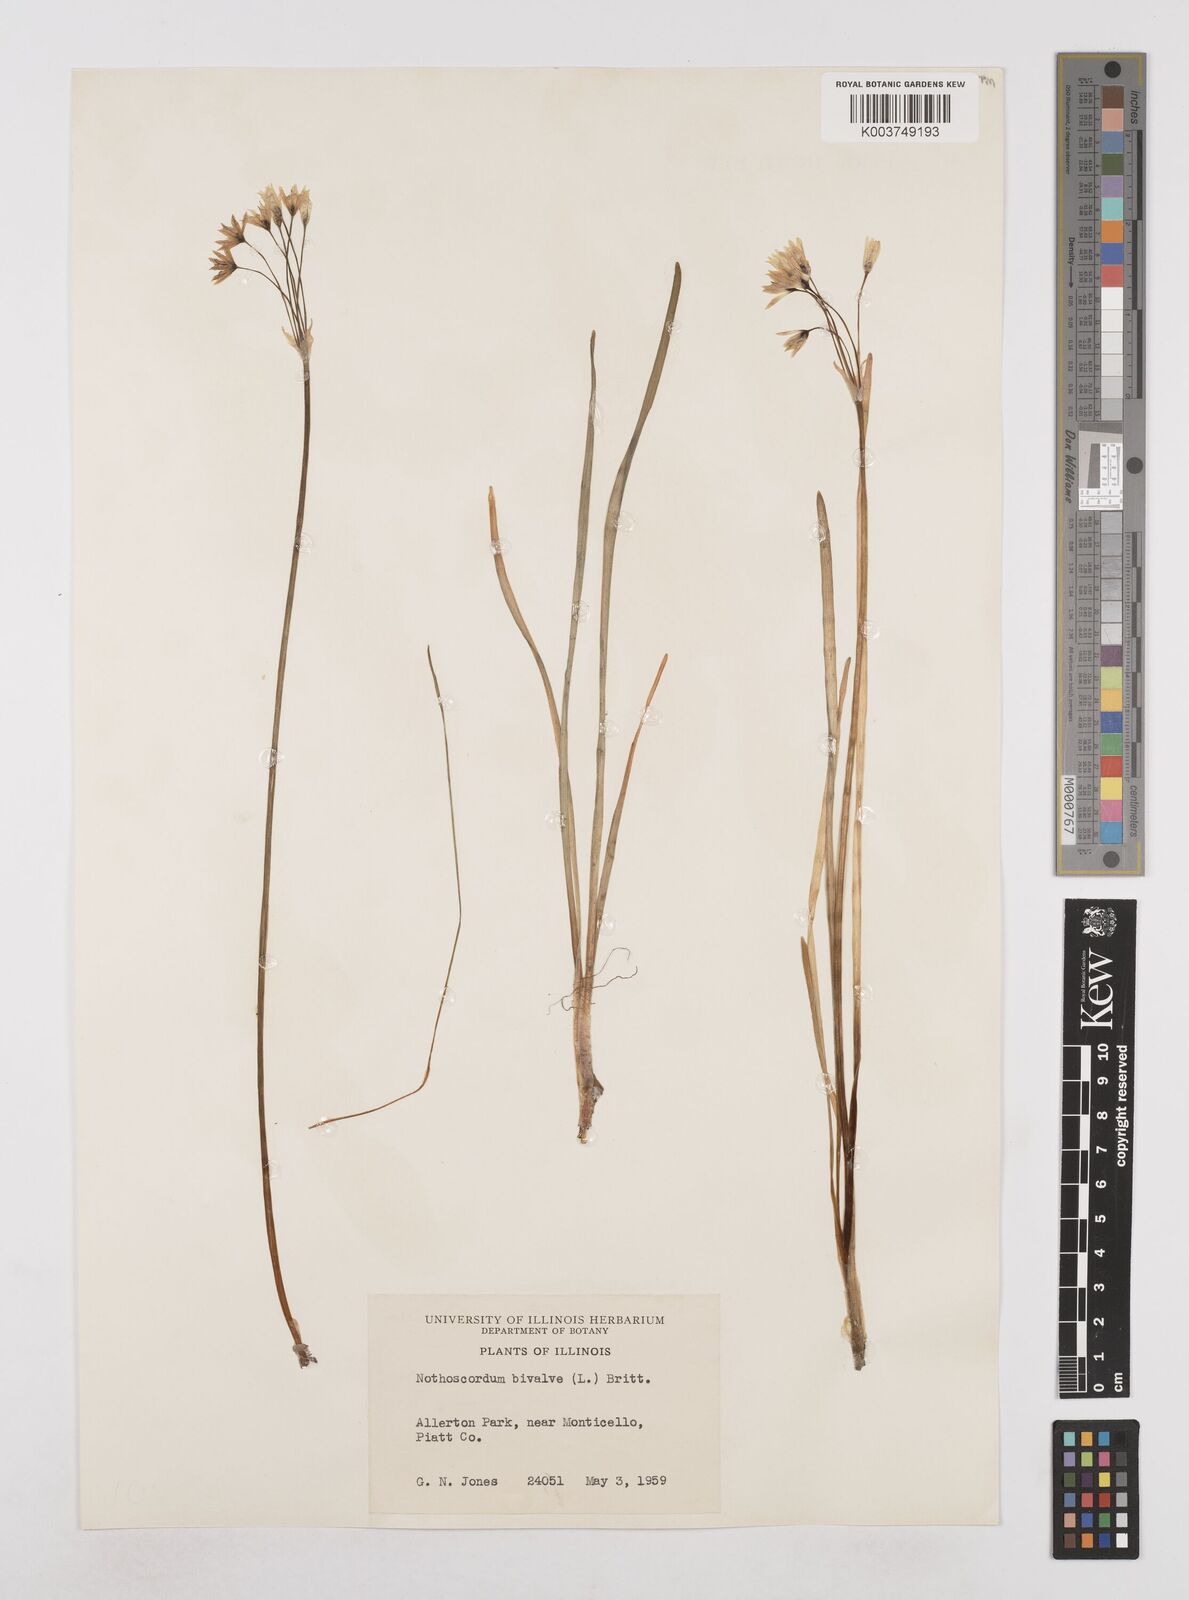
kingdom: Plantae
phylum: Tracheophyta
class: Liliopsida
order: Asparagales
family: Amaryllidaceae
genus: Nothoscordum
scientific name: Nothoscordum bivalve
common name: Crow-poison
